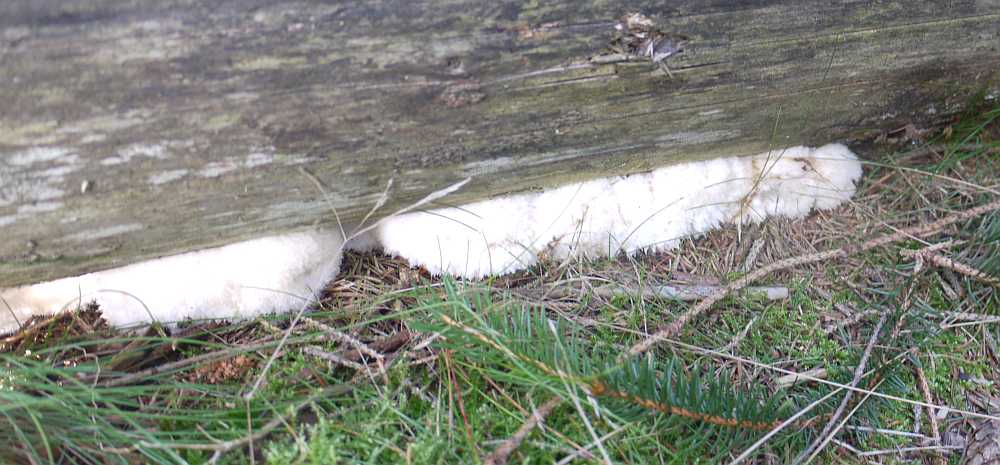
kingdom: Fungi
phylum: Basidiomycota
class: Agaricomycetes
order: Polyporales
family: Dacryobolaceae
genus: Postia
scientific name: Postia ptychogaster
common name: støvende kødporesvamp
